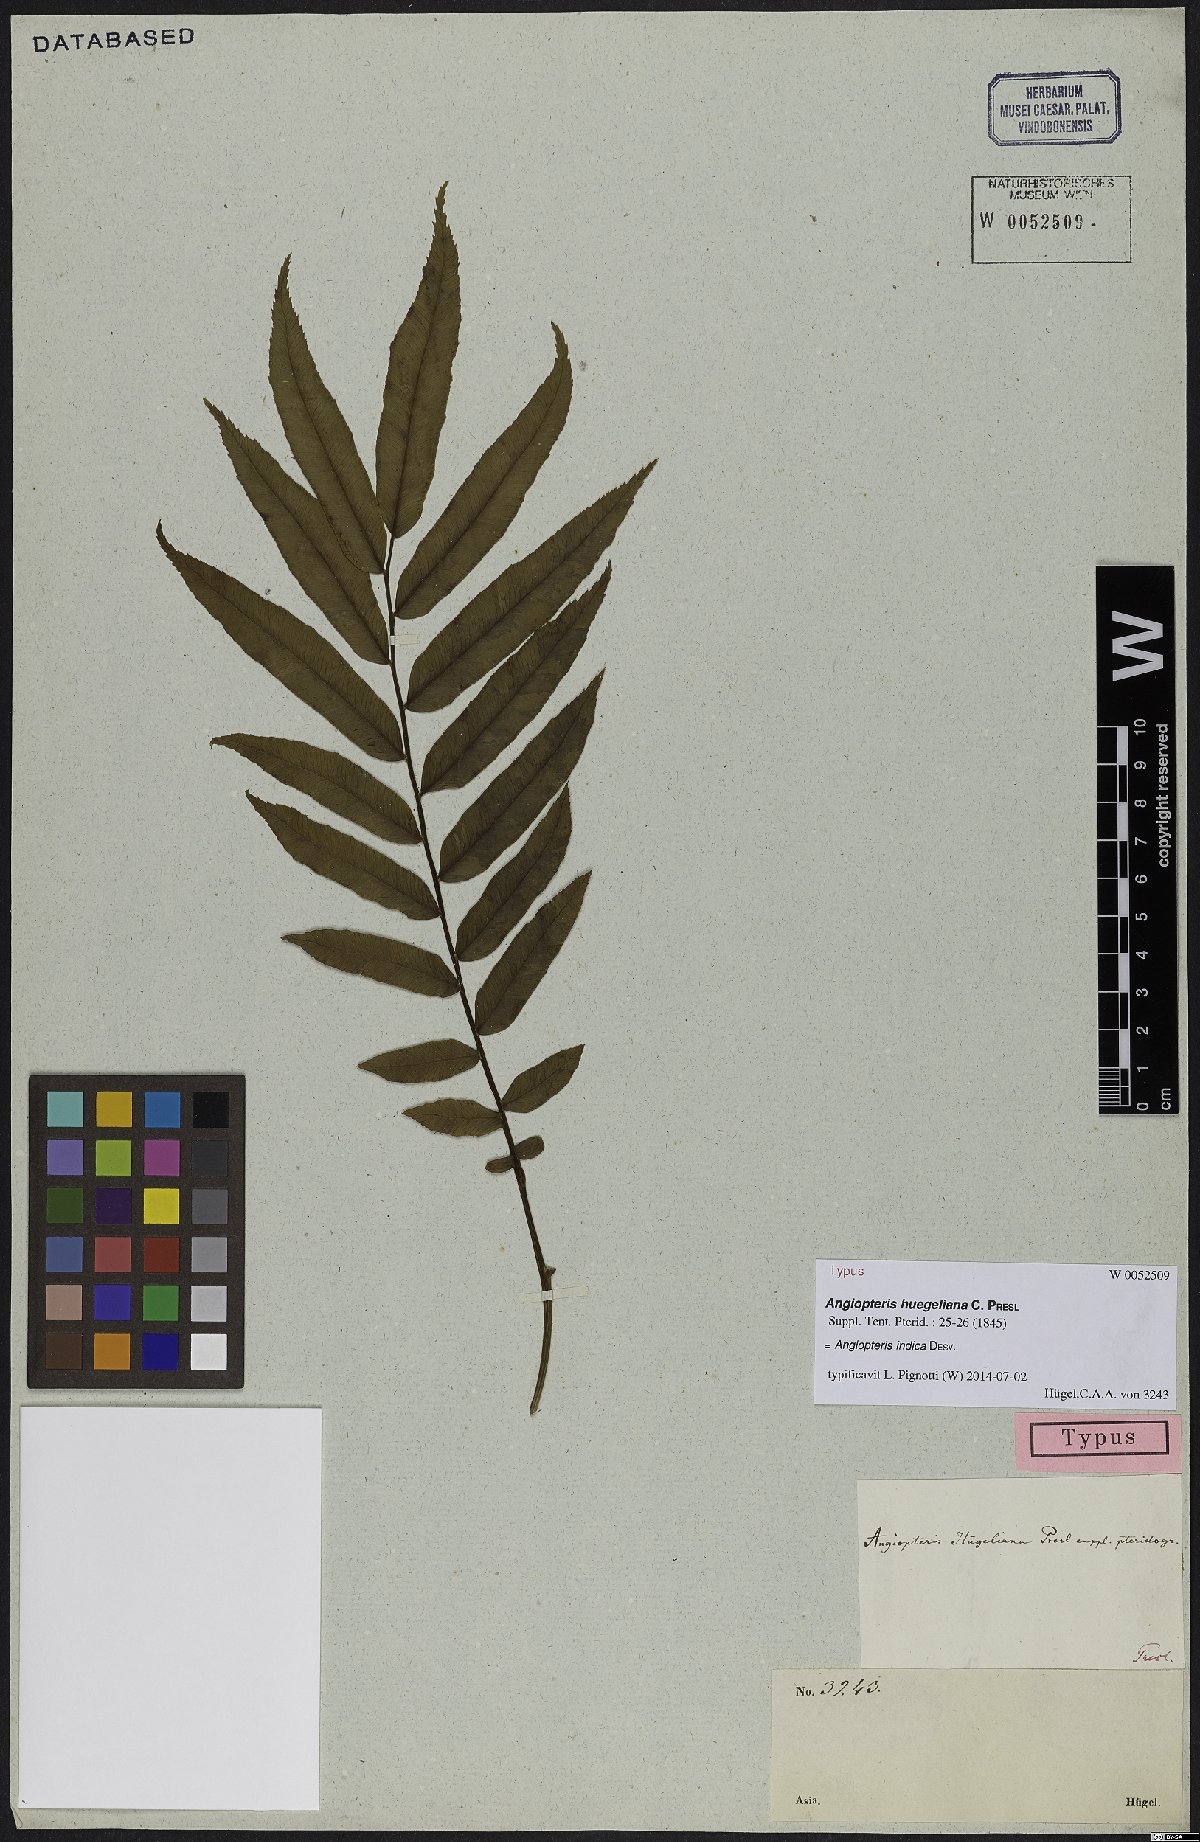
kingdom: Plantae
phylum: Tracheophyta
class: Polypodiopsida
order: Marattiales
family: Marattiaceae
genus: Angiopteris
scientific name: Angiopteris indica
